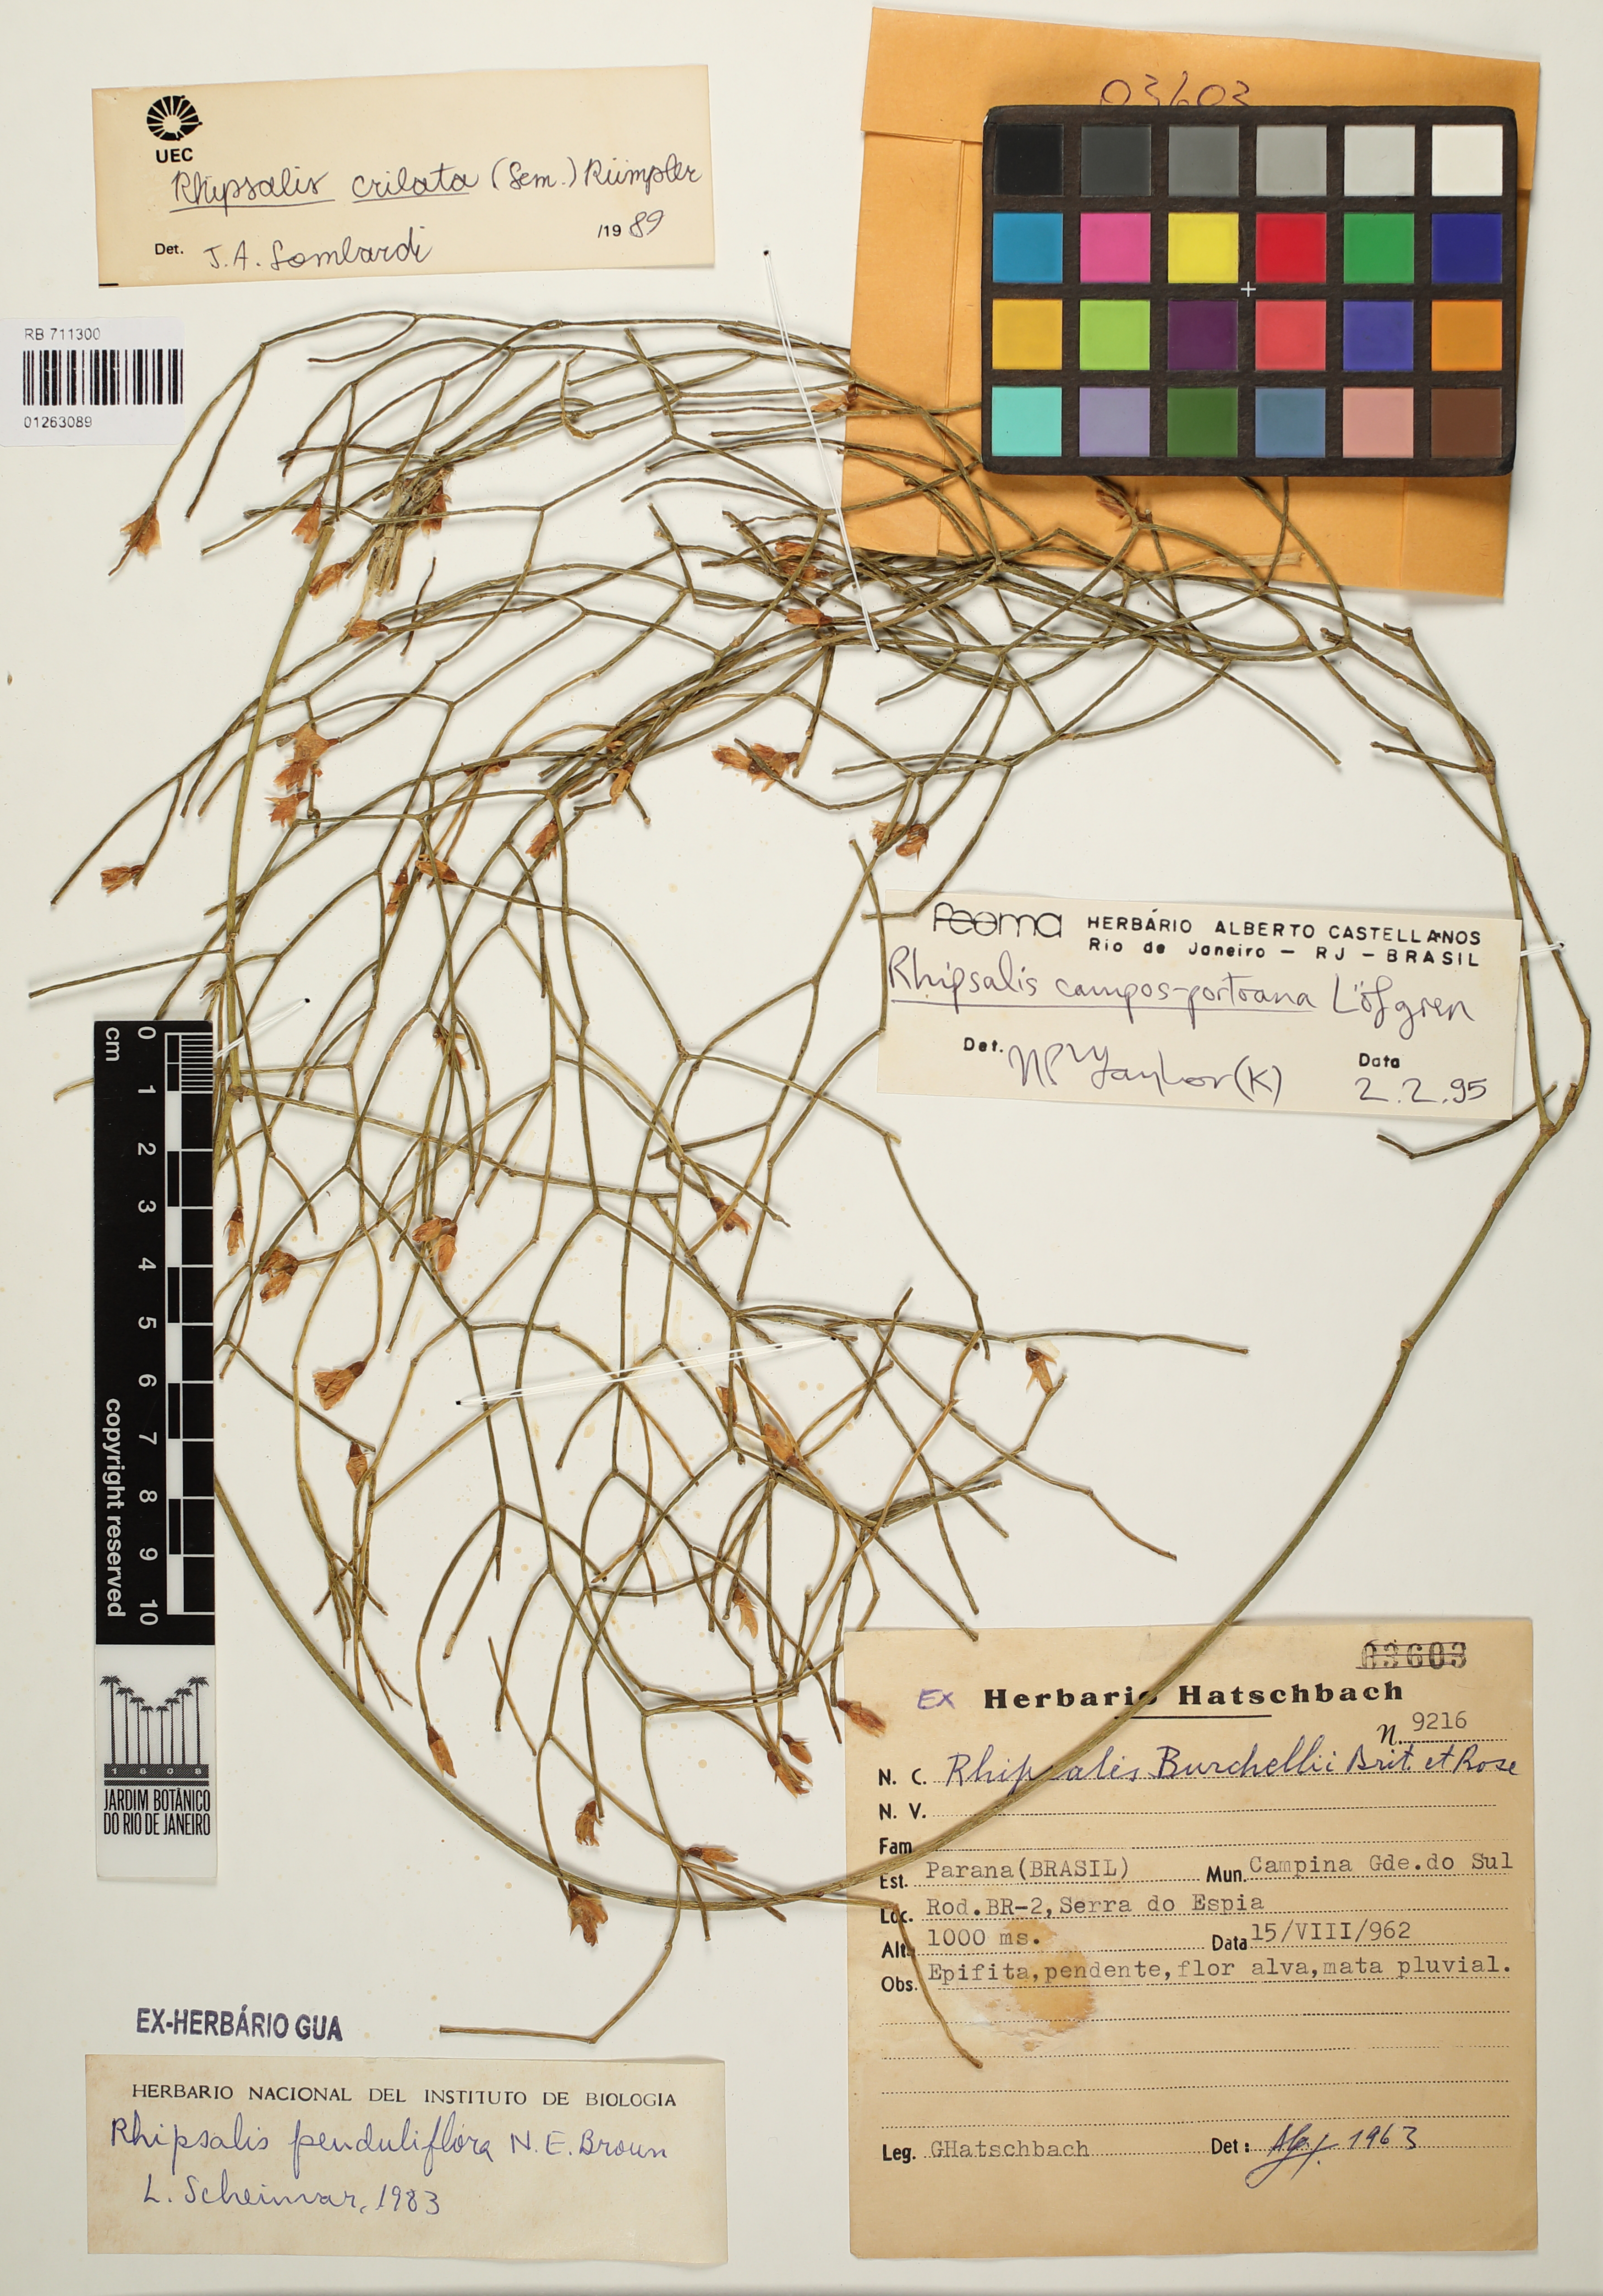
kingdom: Plantae
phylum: Tracheophyta
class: Magnoliopsida
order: Caryophyllales
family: Cactaceae
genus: Rhipsalis
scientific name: Rhipsalis campos-portoana
